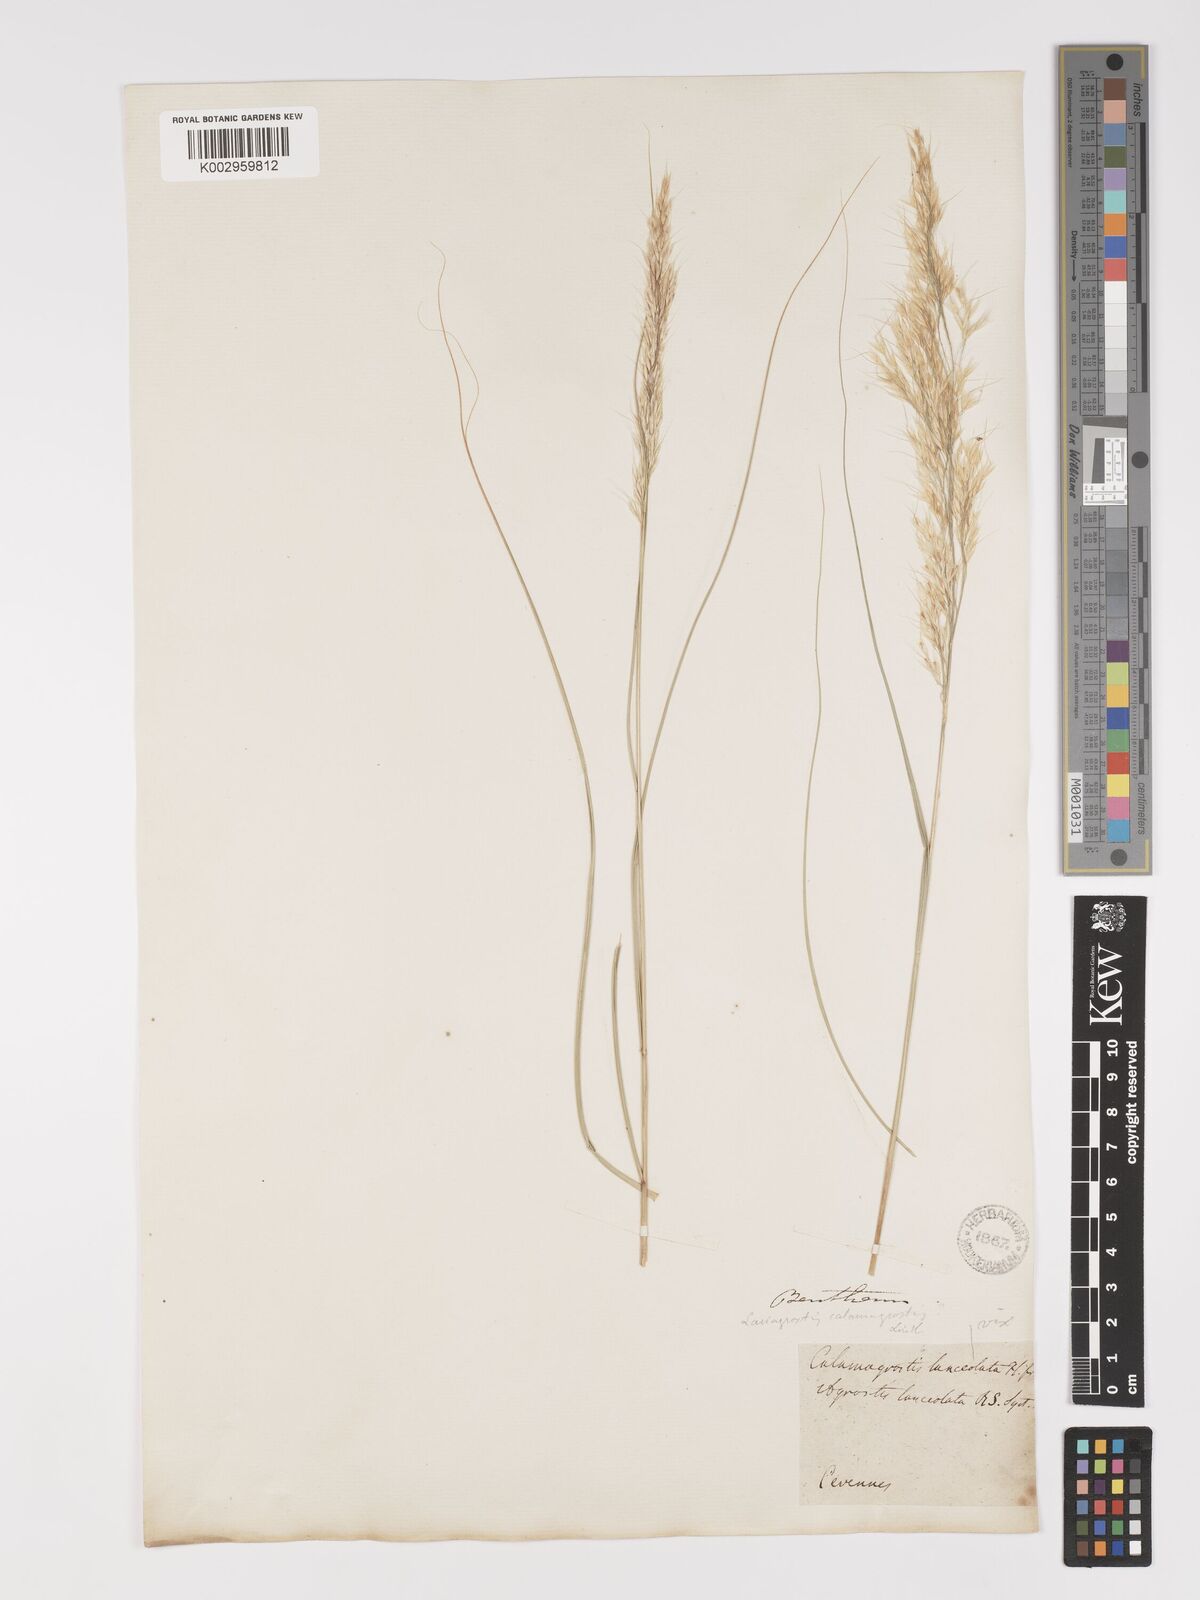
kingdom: Plantae
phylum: Tracheophyta
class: Liliopsida
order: Poales
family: Poaceae
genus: Achnatherum
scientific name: Achnatherum calamagrostis
